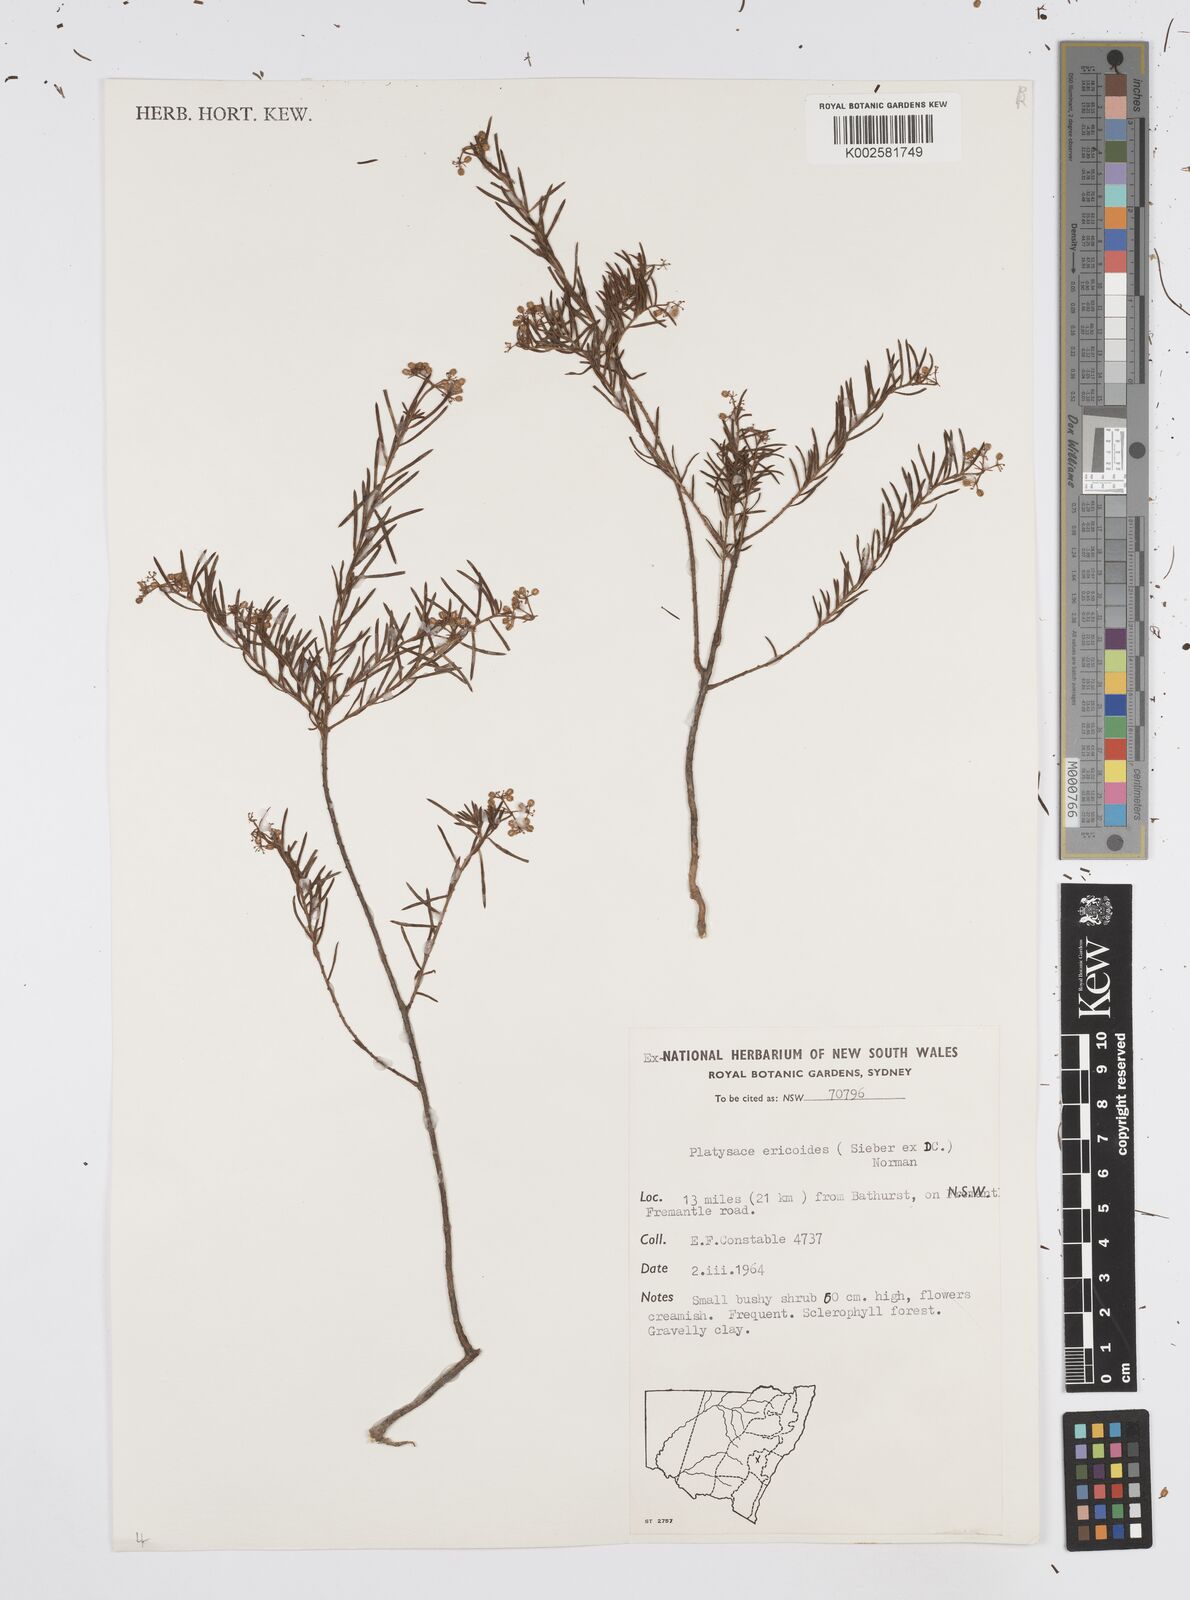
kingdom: Plantae
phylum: Tracheophyta
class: Magnoliopsida
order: Apiales
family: Apiaceae
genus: Platysace
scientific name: Platysace ericoides
